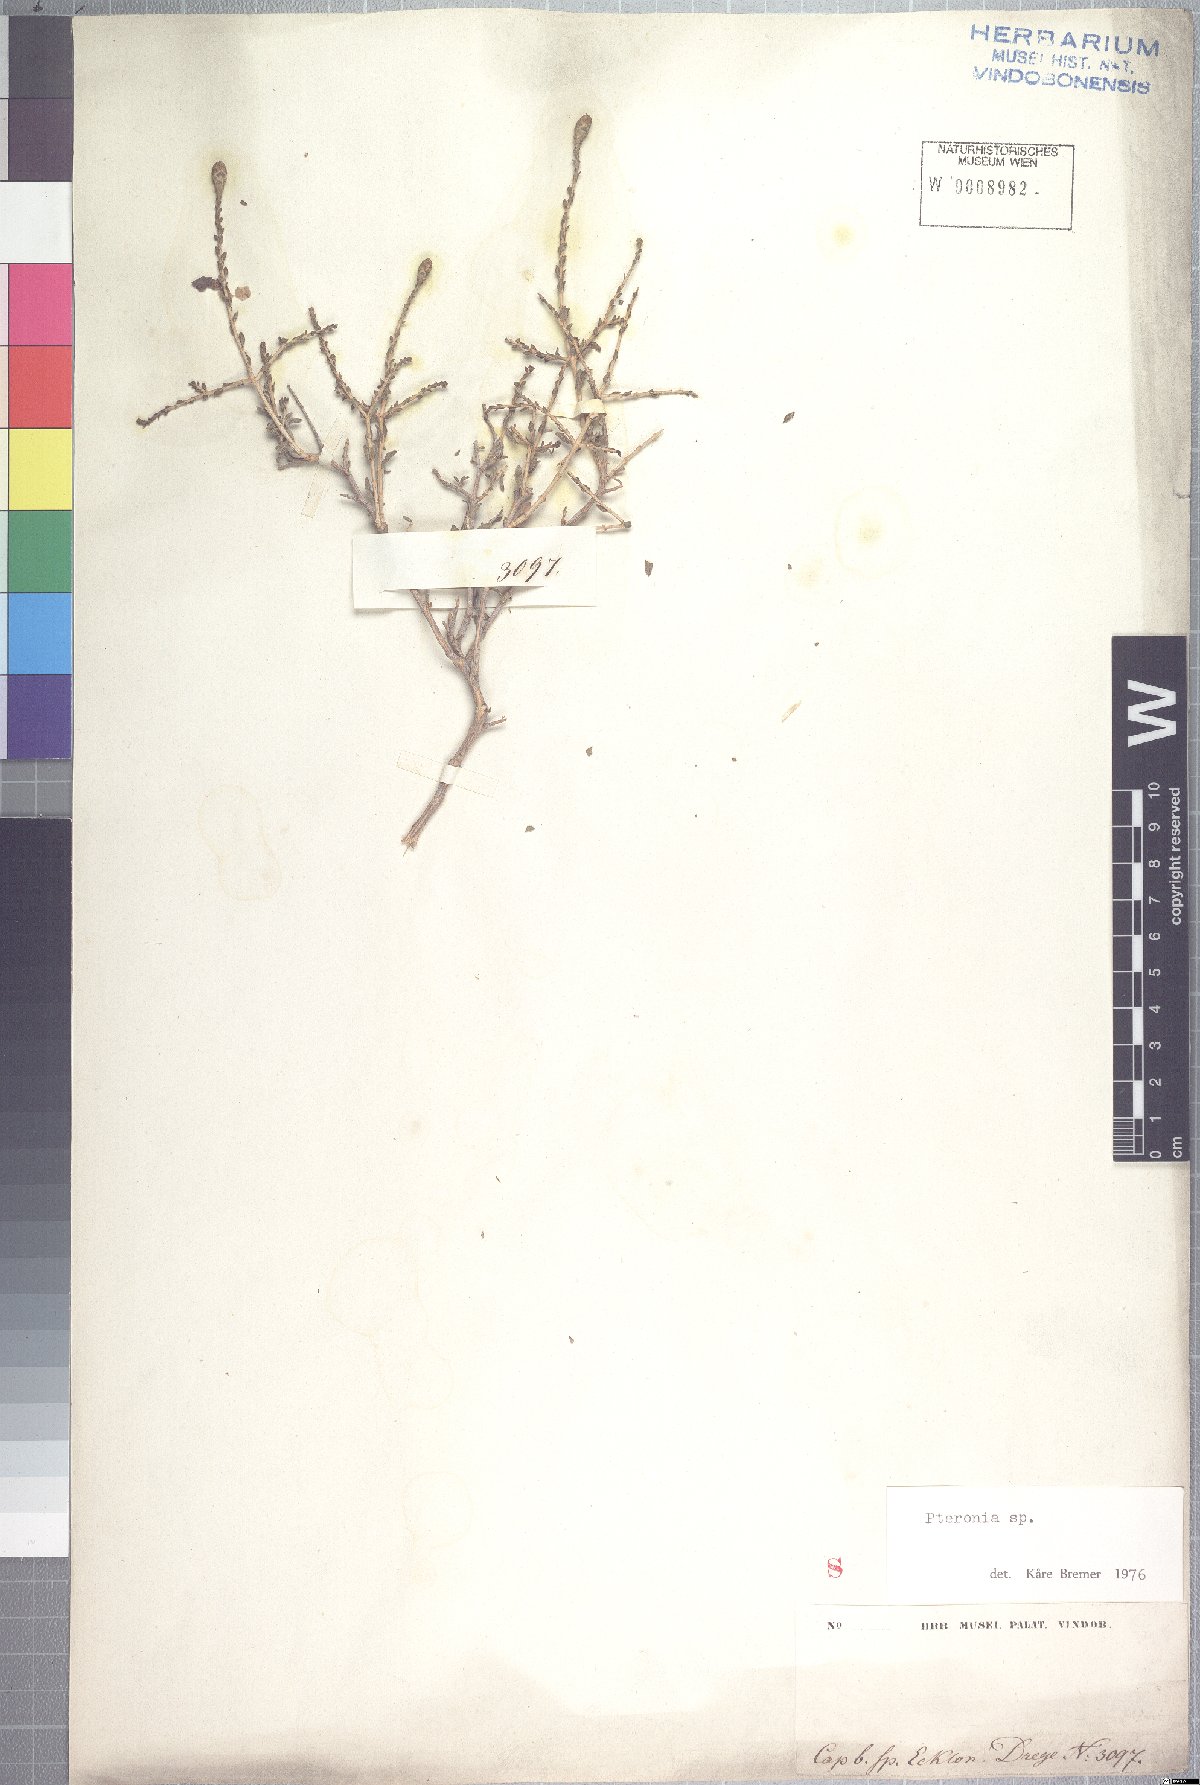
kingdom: Plantae
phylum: Tracheophyta
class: Magnoliopsida
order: Asterales
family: Asteraceae
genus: Pteronia
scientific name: Pteronia inflexa
